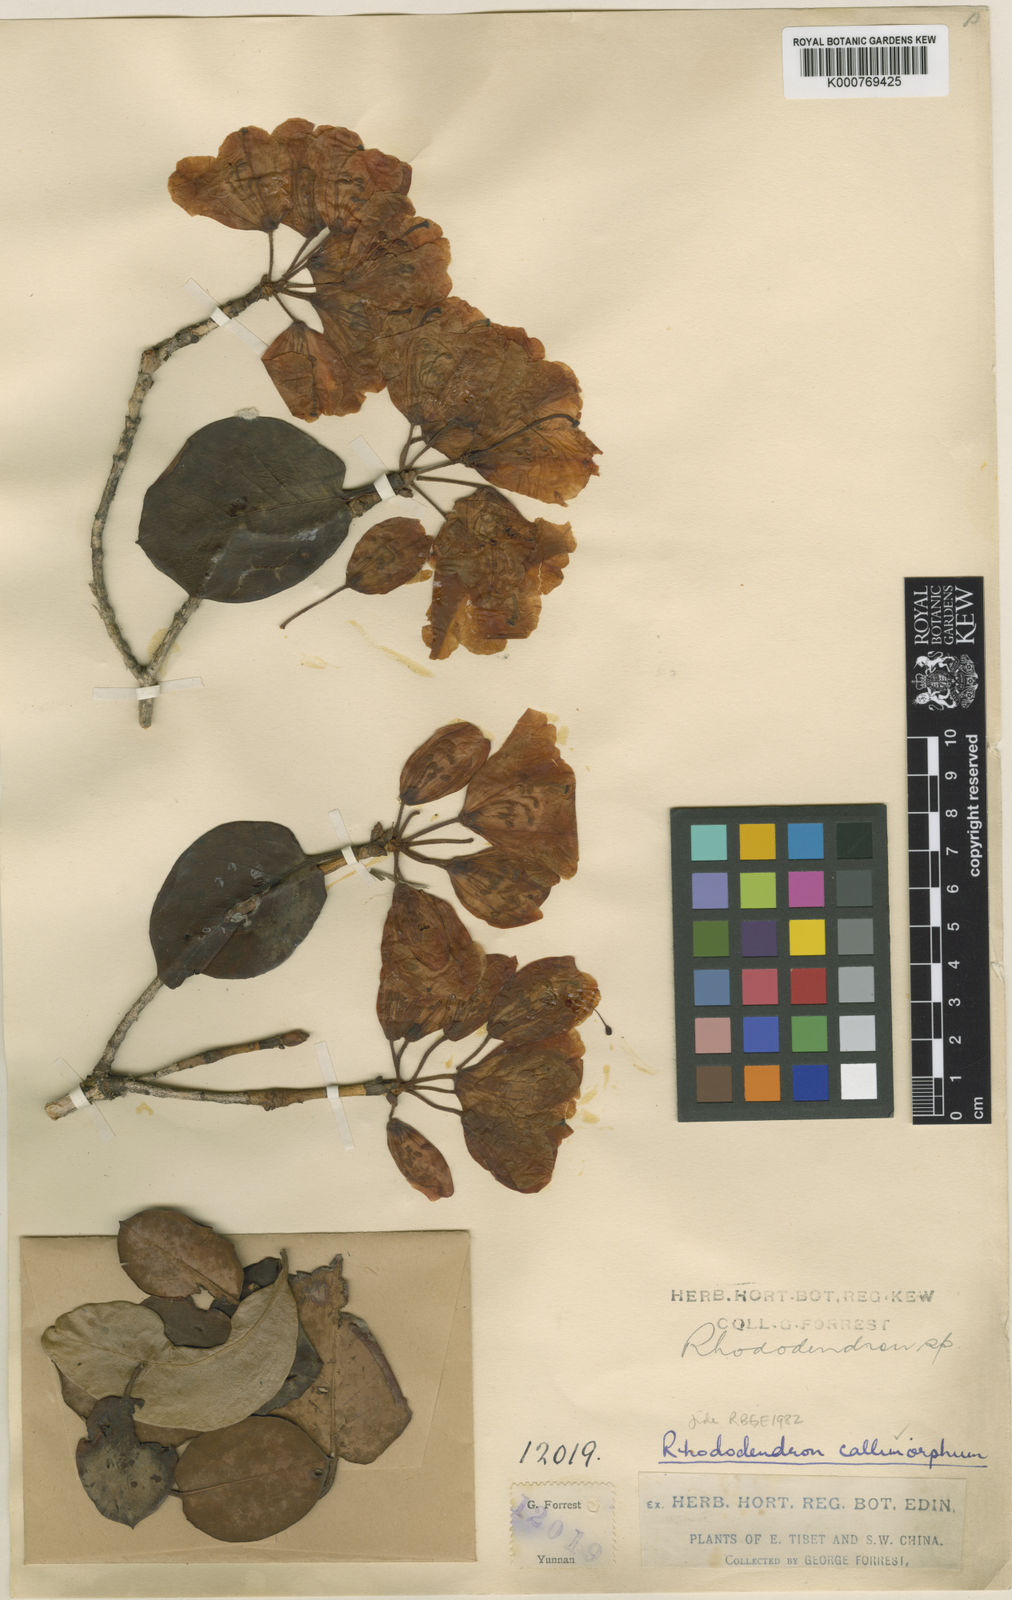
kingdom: Plantae
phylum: Tracheophyta
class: Magnoliopsida
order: Ericales
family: Ericaceae
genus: Rhododendron
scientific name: Rhododendron callimorphum
